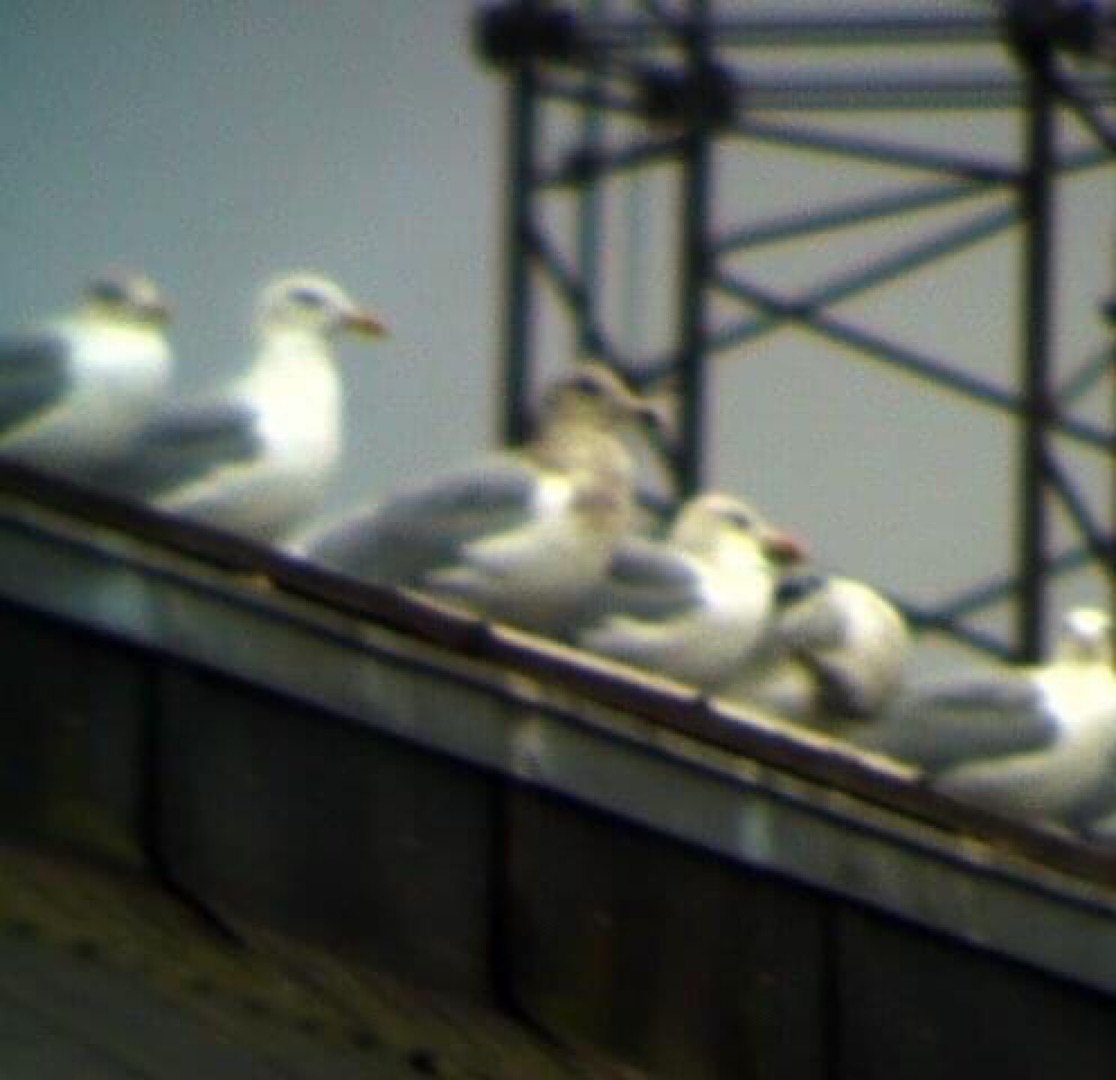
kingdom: Animalia
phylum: Chordata
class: Aves
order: Charadriiformes
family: Laridae
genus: Larus
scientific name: Larus glaucescens
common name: Gråvinget måge
